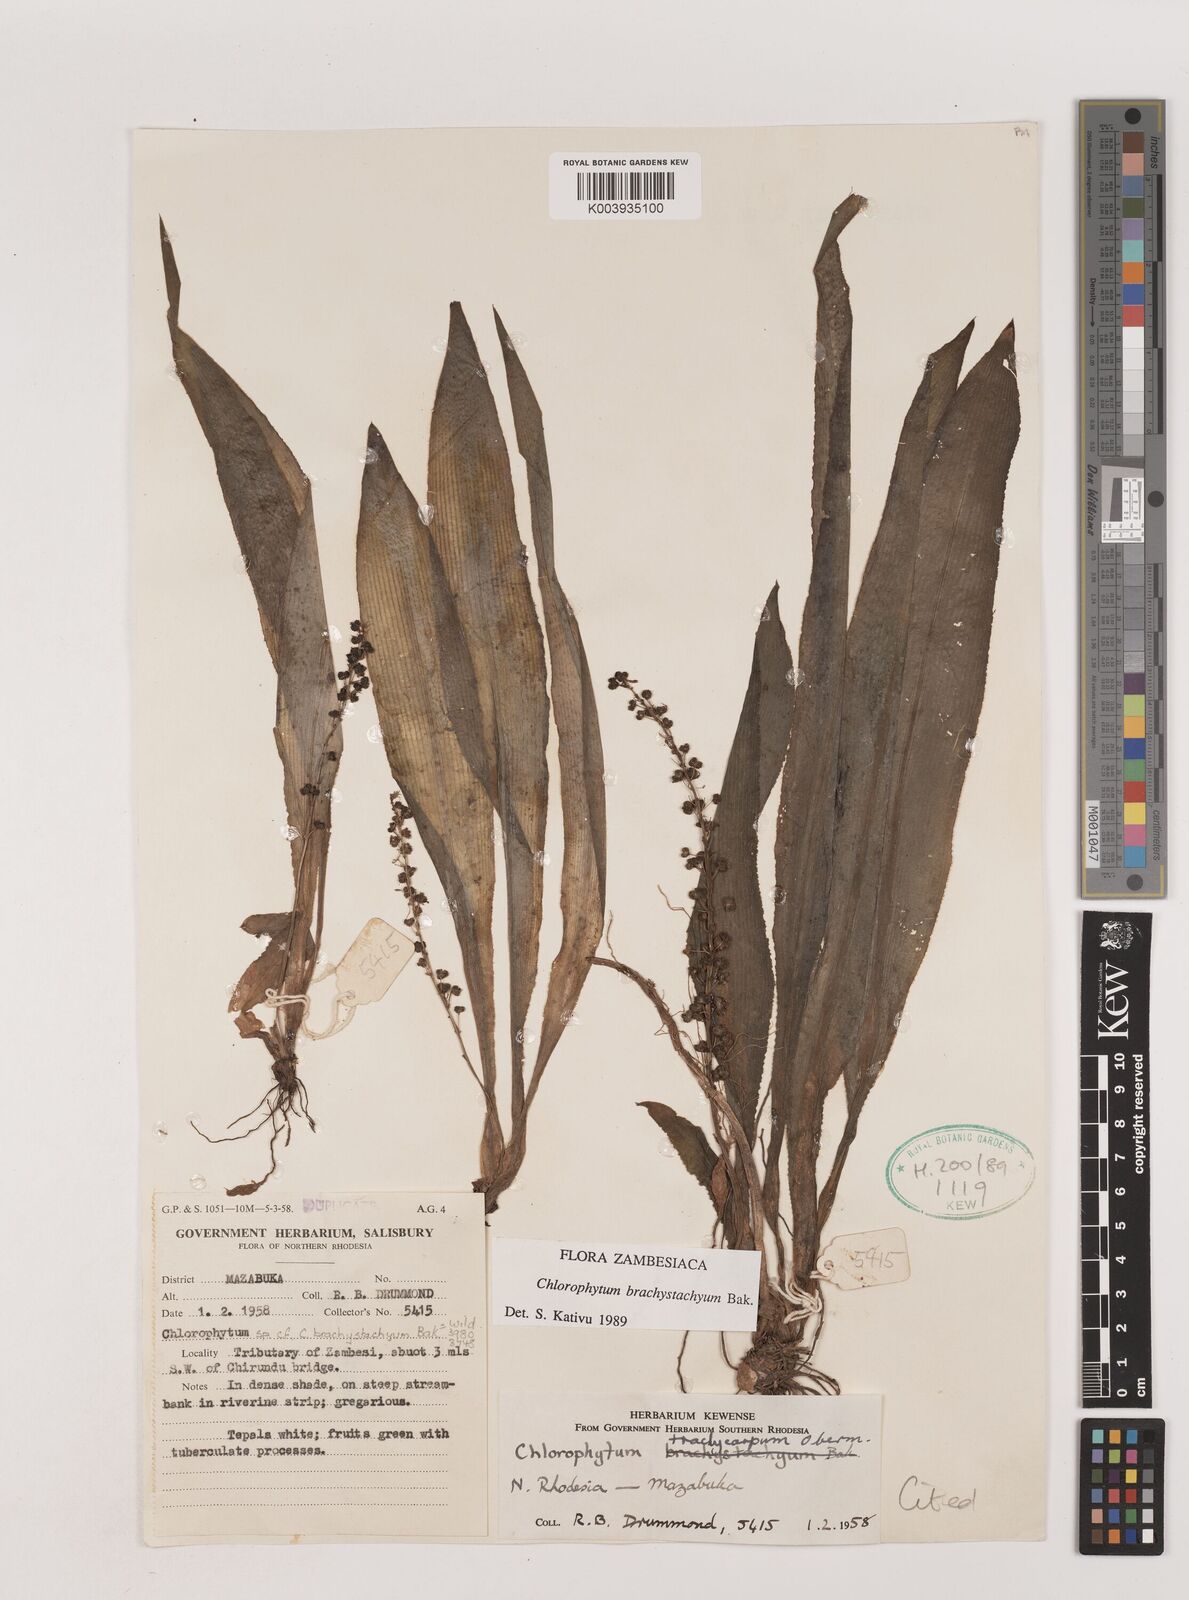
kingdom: Plantae
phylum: Tracheophyta
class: Liliopsida
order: Asparagales
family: Asparagaceae
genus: Chlorophytum
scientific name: Chlorophytum brachystachyum
